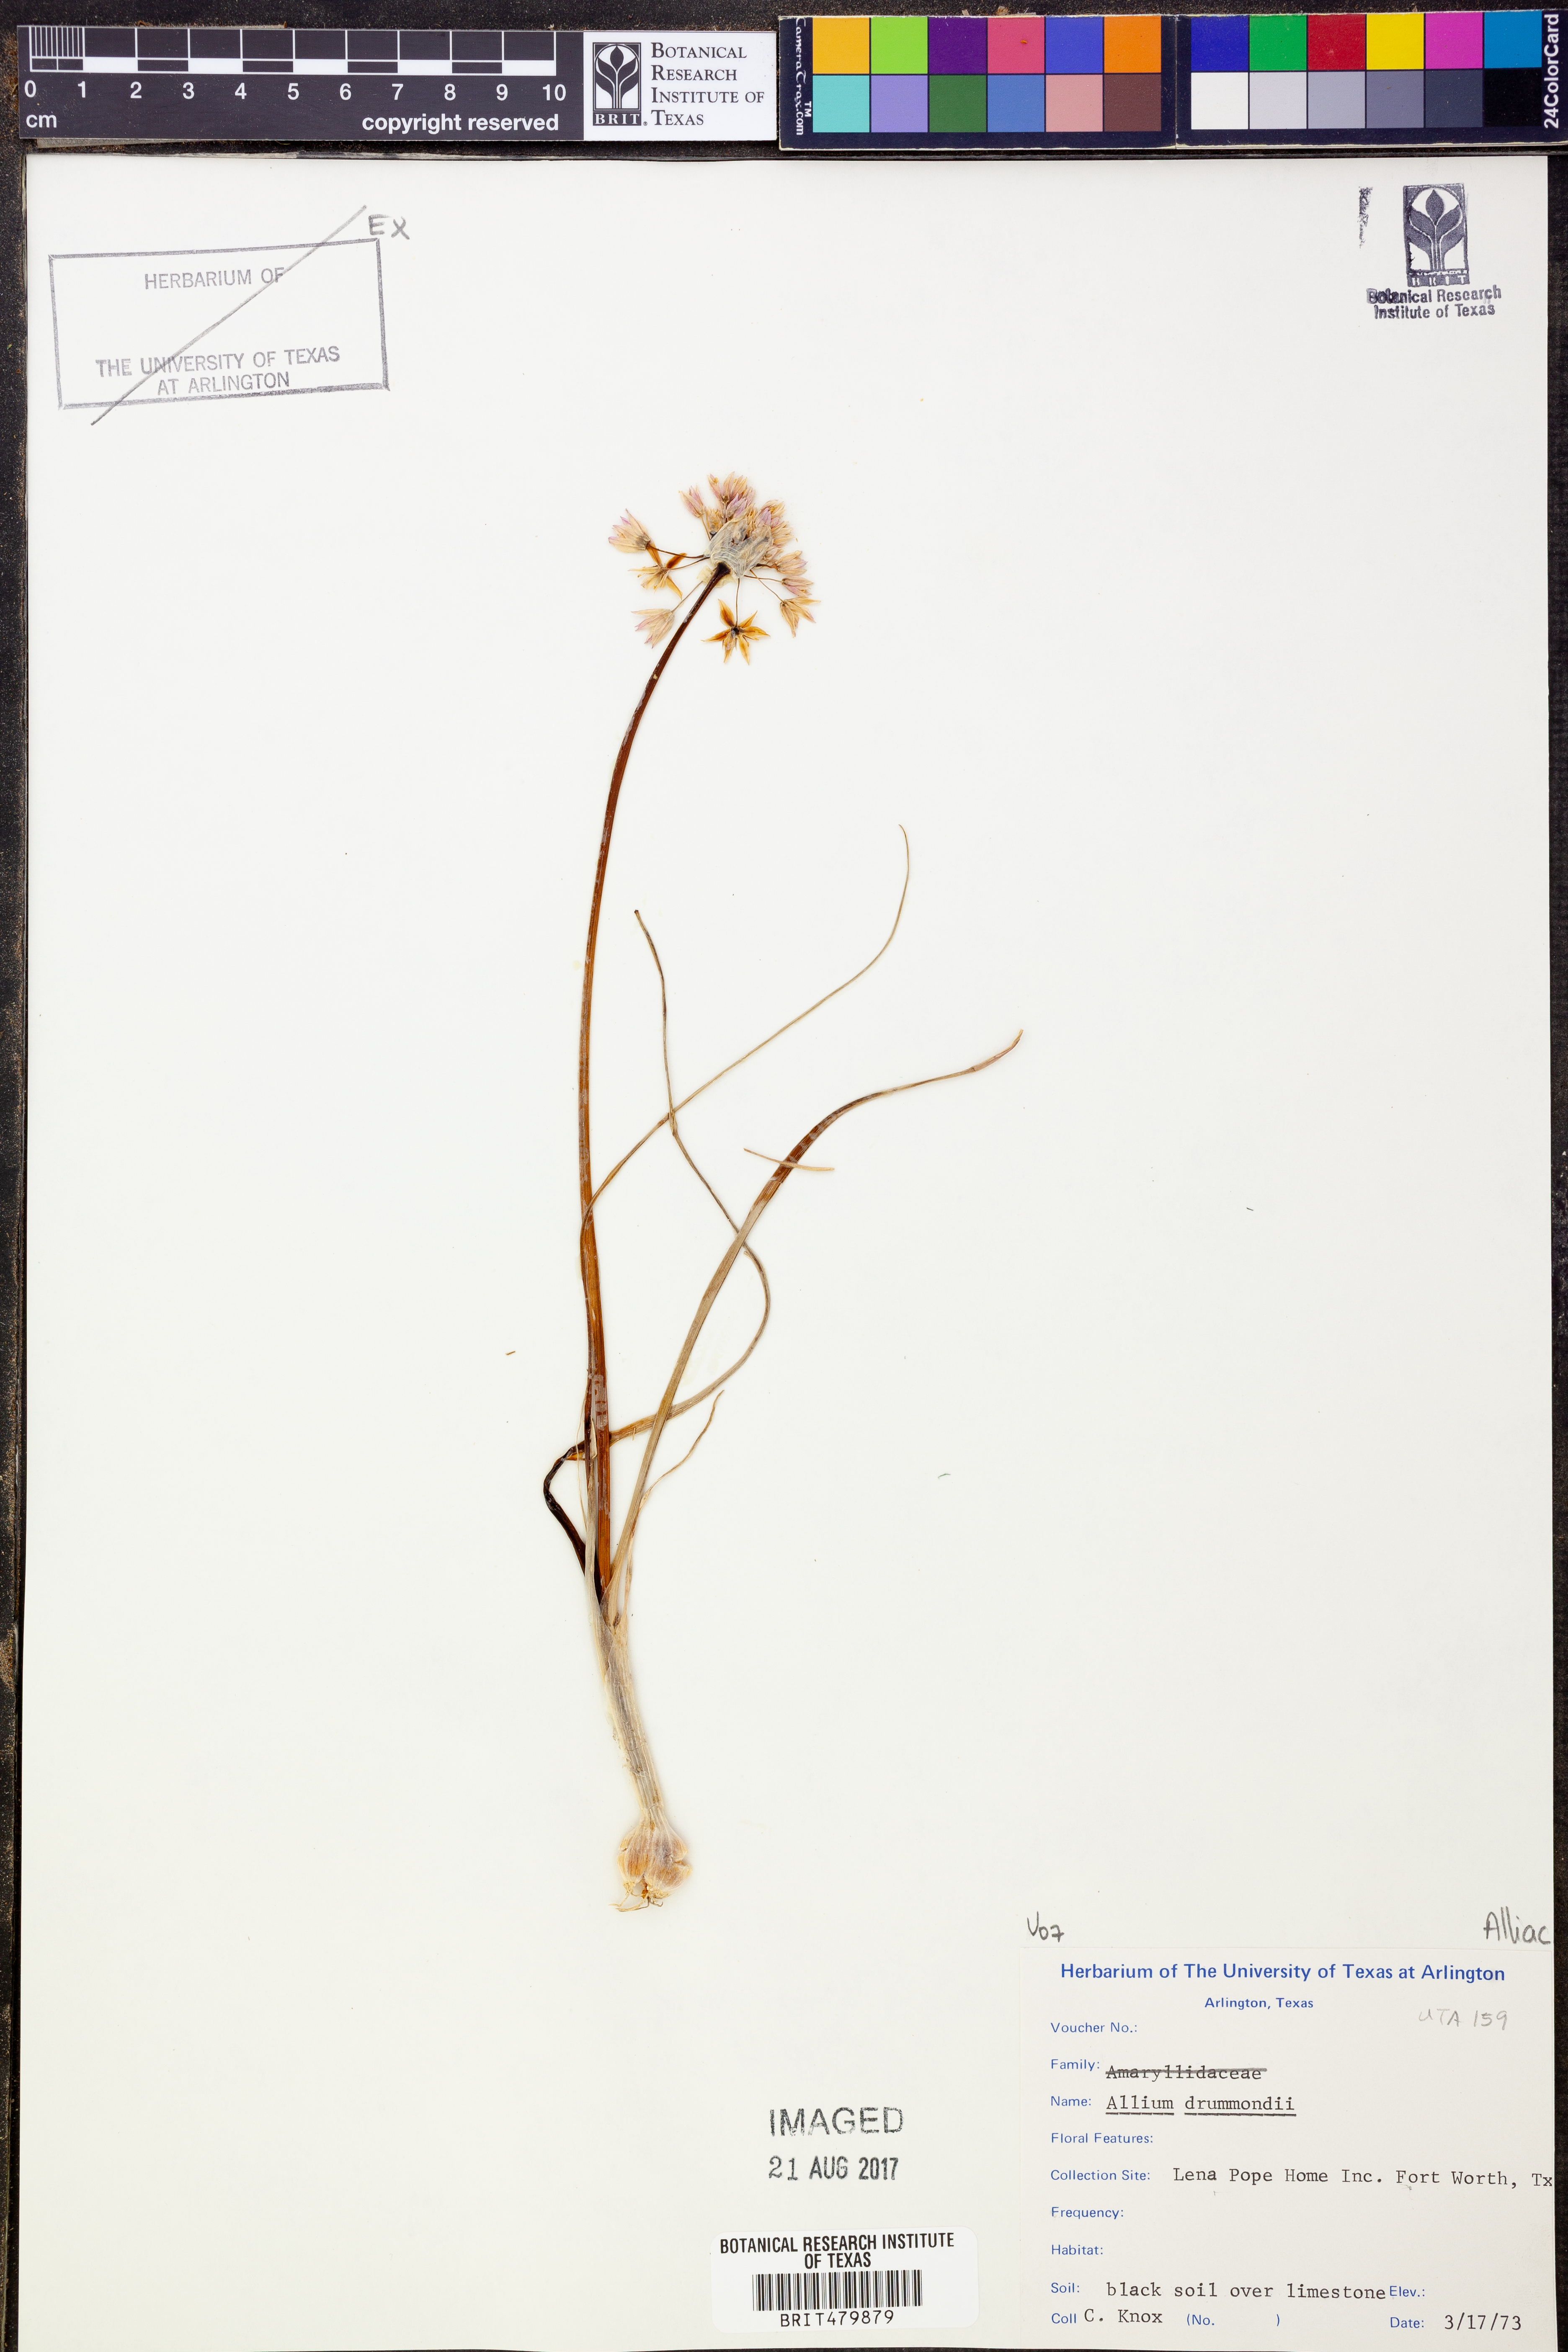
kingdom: Plantae
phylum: Tracheophyta
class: Liliopsida
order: Asparagales
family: Amaryllidaceae
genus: Allium
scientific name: Allium drummondii
